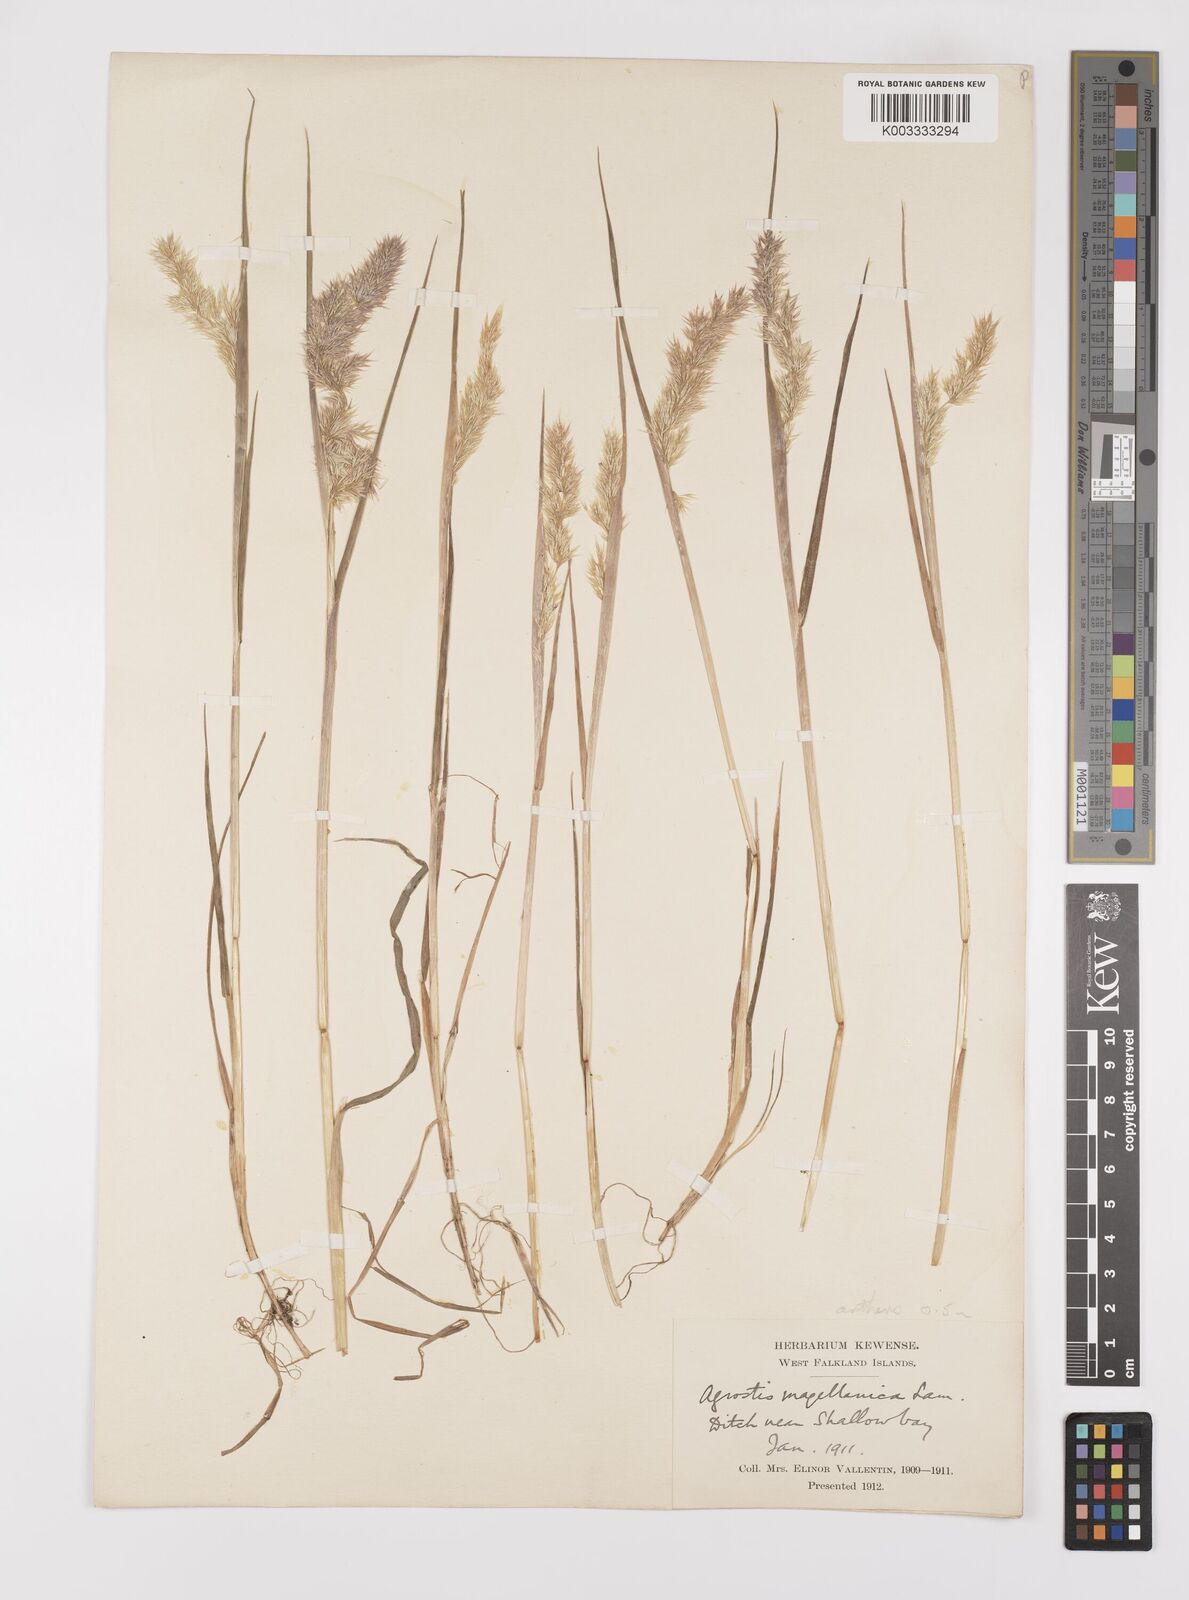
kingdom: Plantae
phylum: Tracheophyta
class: Liliopsida
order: Poales
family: Poaceae
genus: Polypogon
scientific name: Polypogon magellanicus
